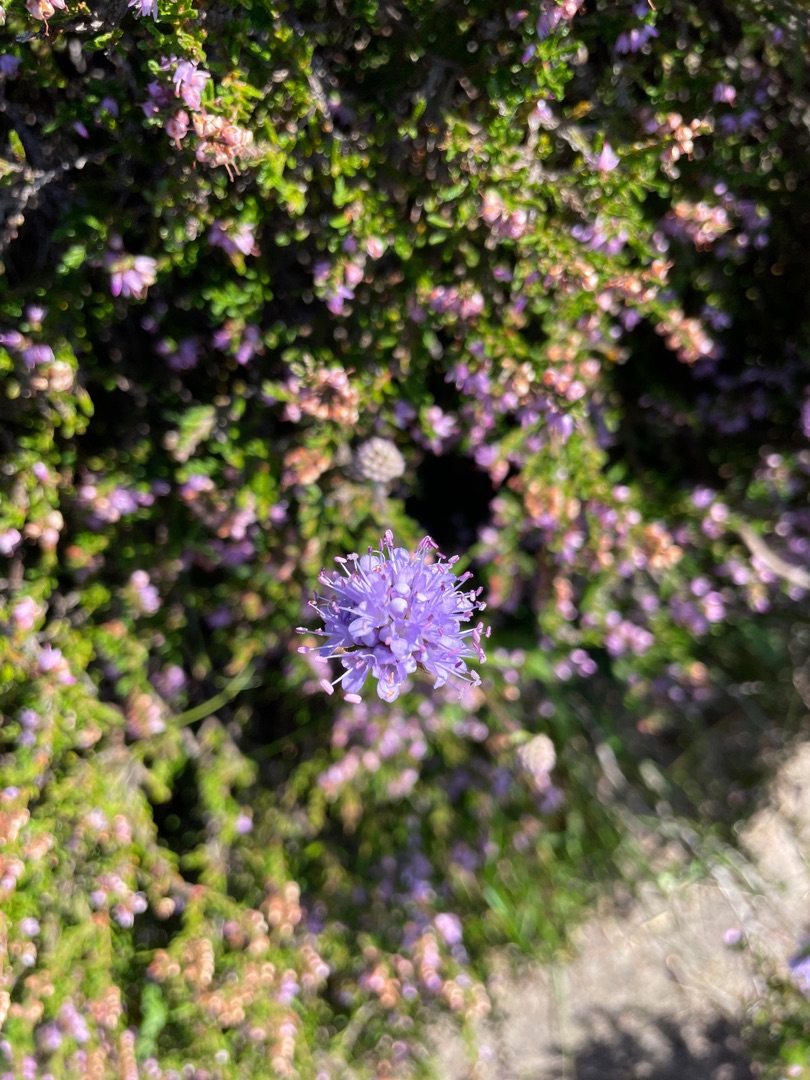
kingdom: Plantae
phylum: Tracheophyta
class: Magnoliopsida
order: Dipsacales
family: Caprifoliaceae
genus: Succisa
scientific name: Succisa pratensis
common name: Djævelsbid
